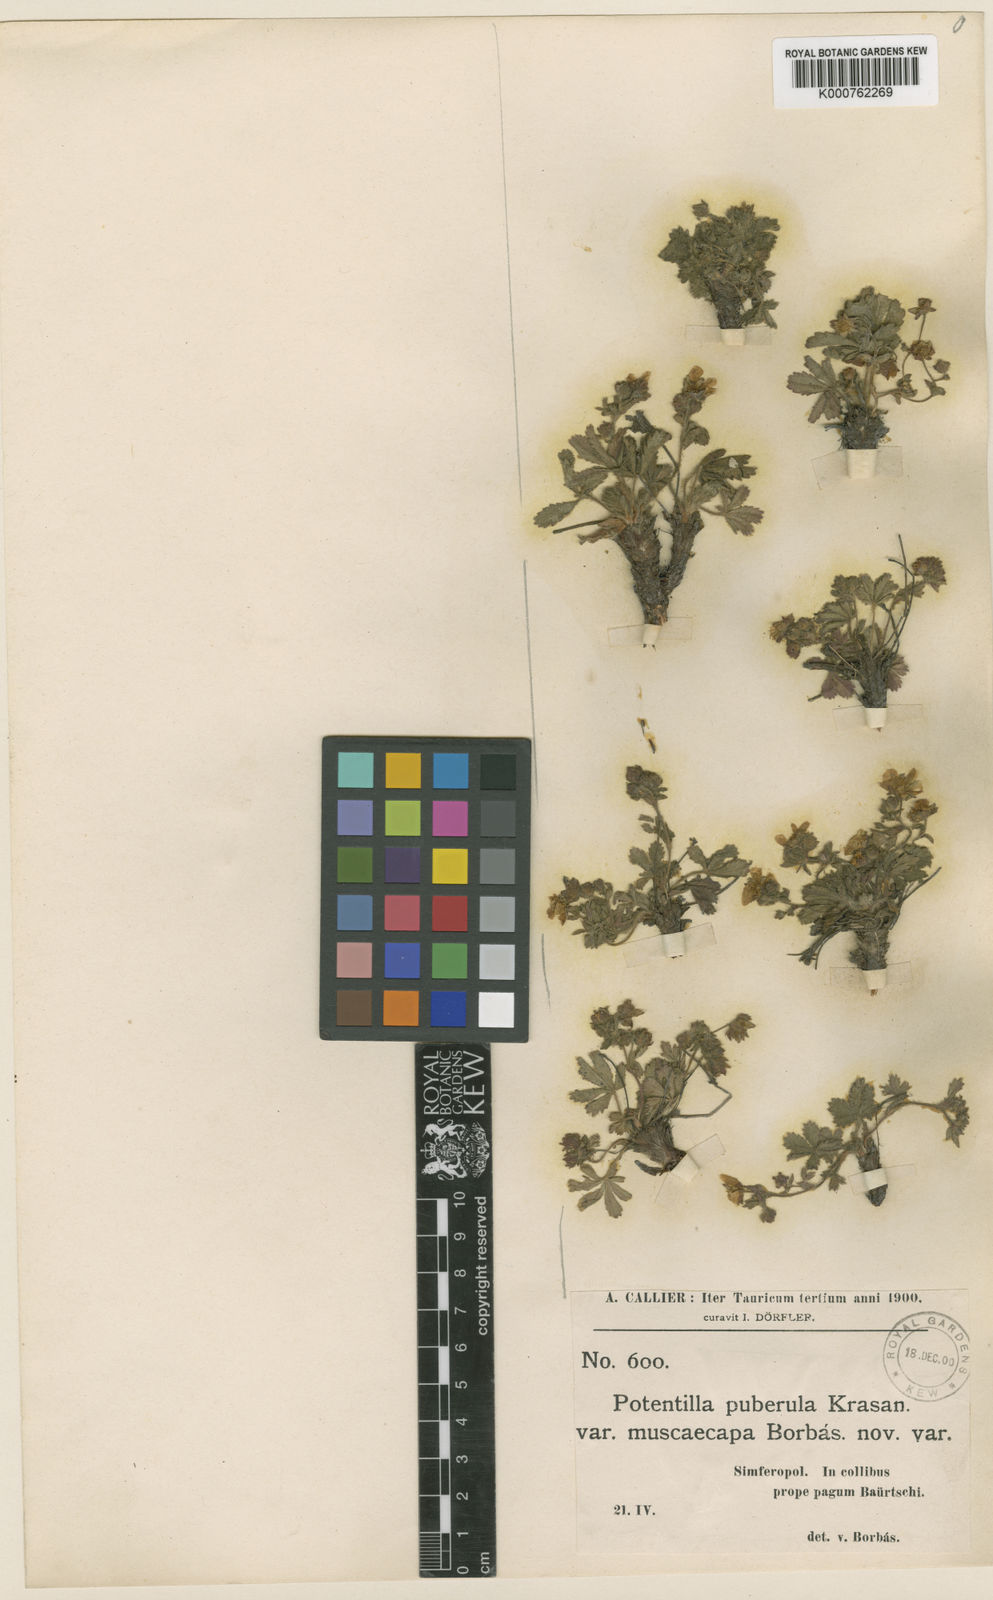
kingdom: Plantae
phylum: Tracheophyta
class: Magnoliopsida
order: Rosales
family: Rosaceae
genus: Potentilla
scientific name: Potentilla humifusa
